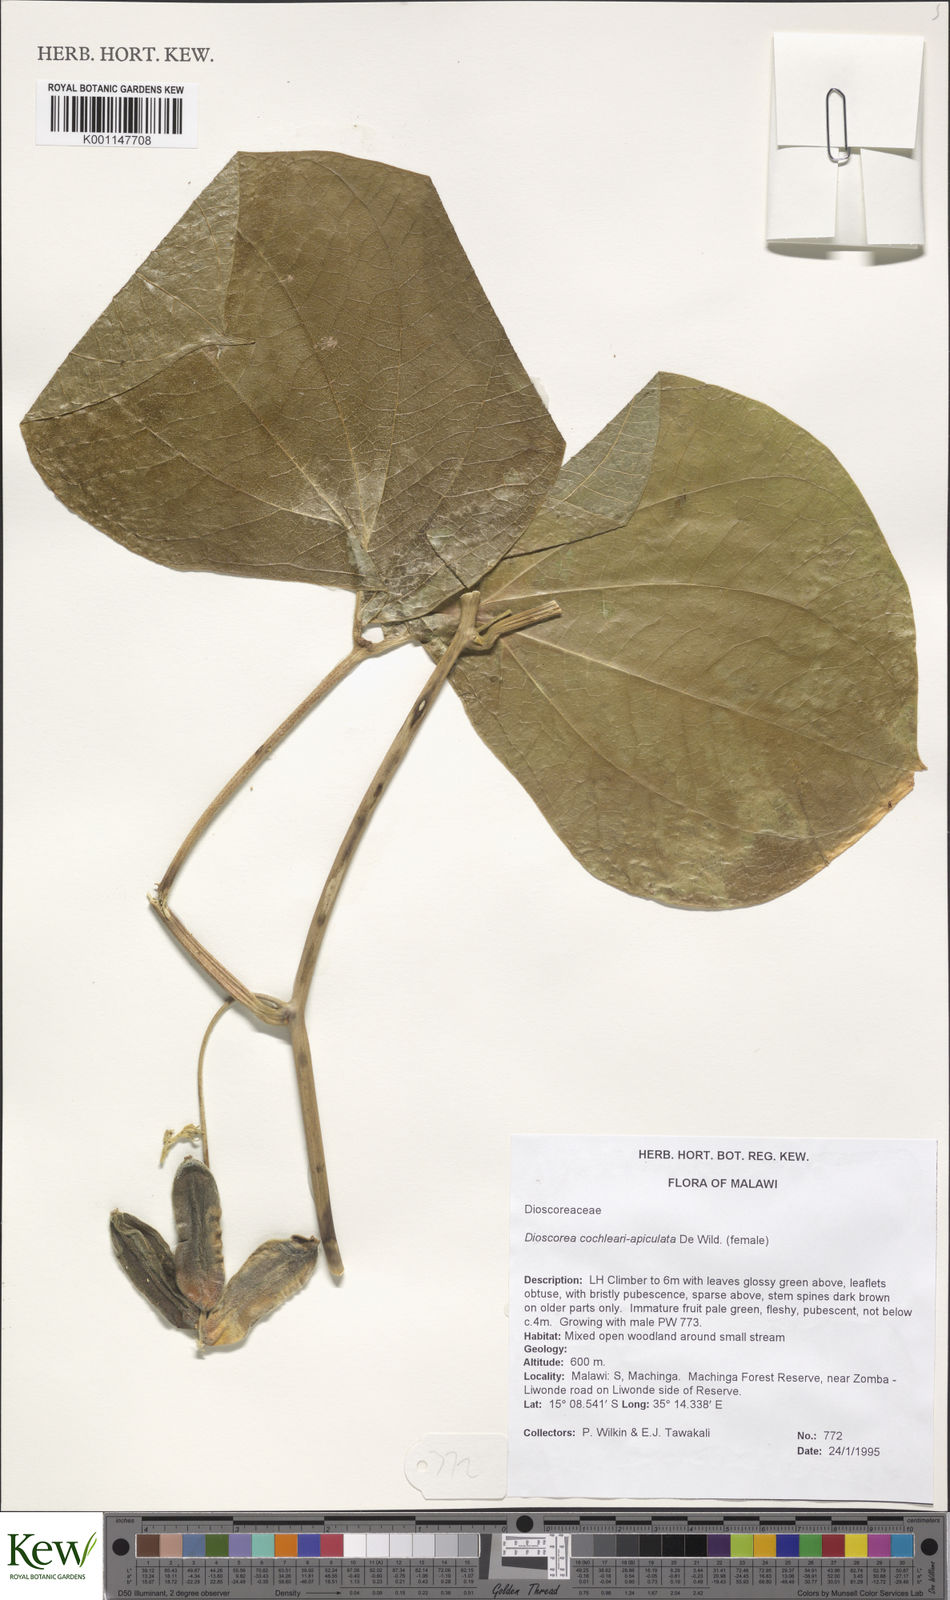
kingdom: Plantae
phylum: Tracheophyta
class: Liliopsida
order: Dioscoreales
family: Dioscoreaceae
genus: Dioscorea
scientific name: Dioscorea cochleariapiculata
